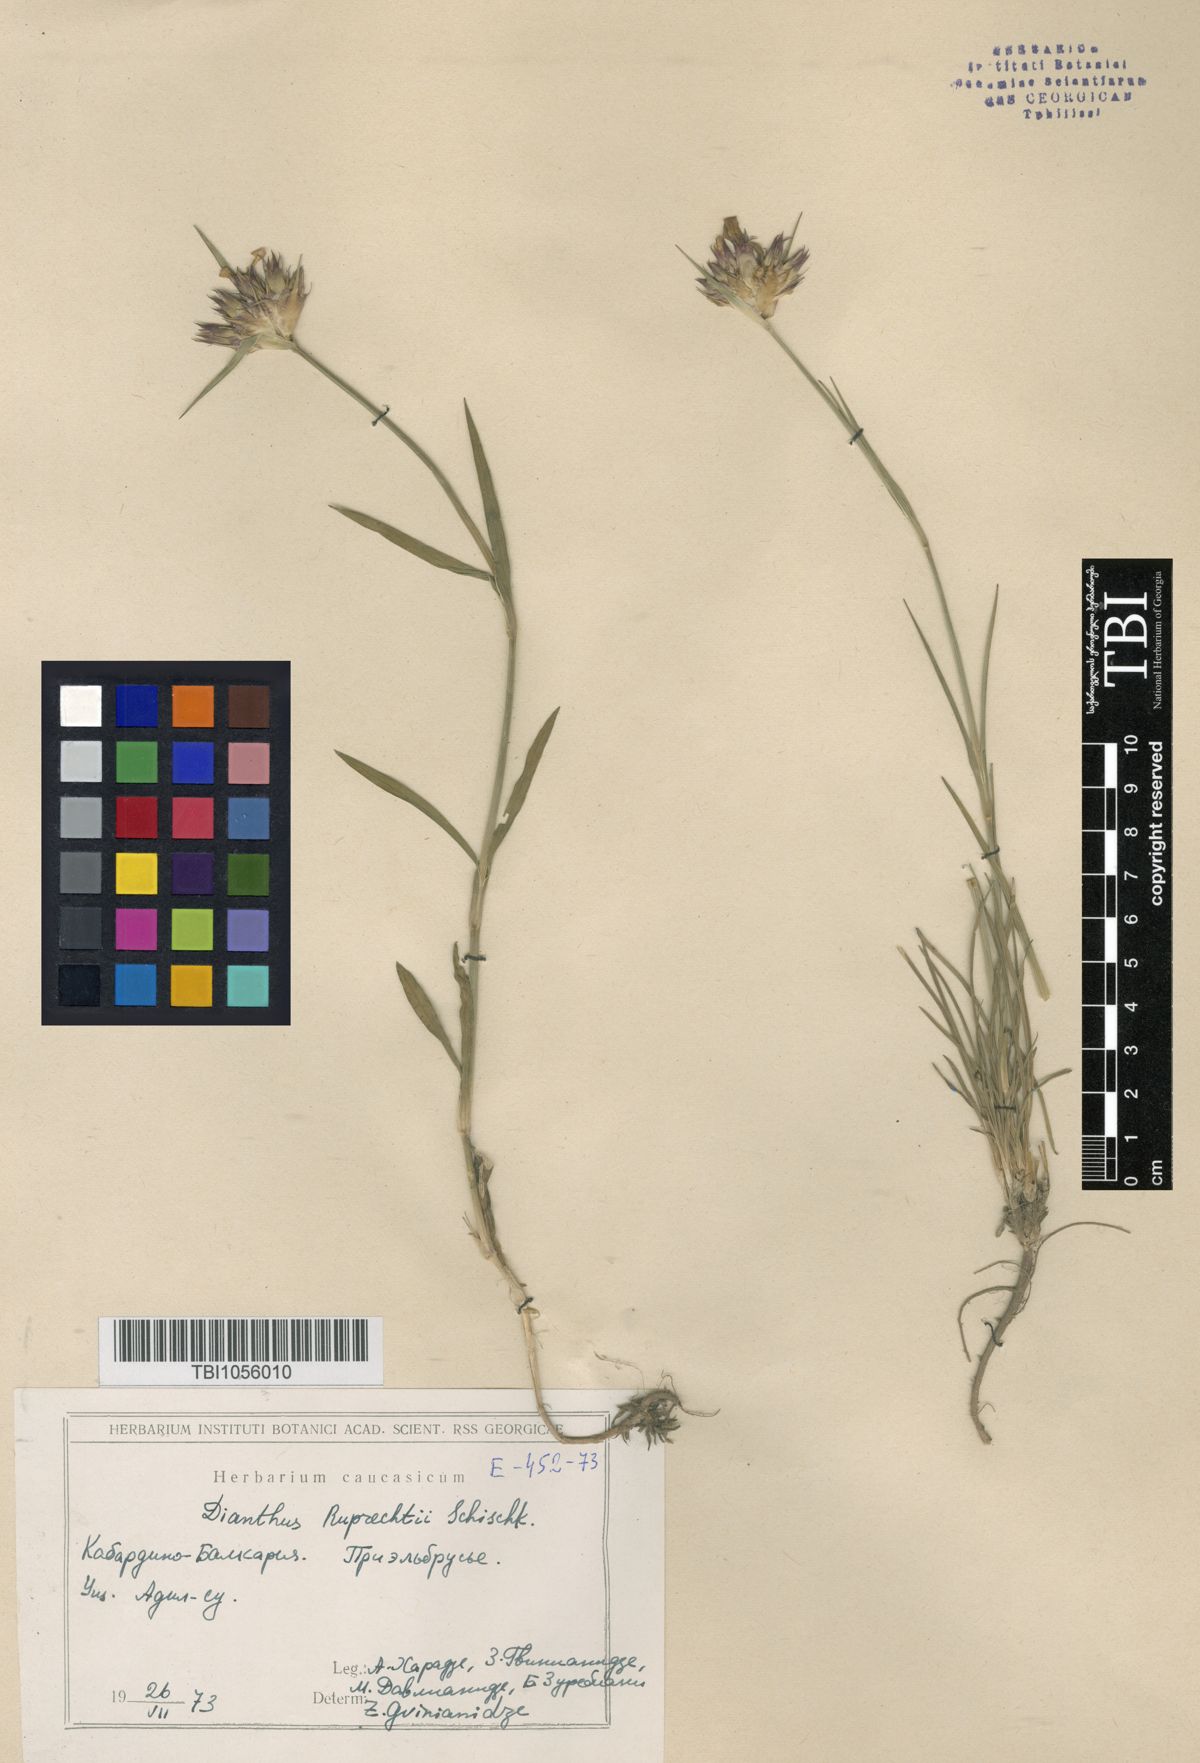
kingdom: Plantae
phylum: Tracheophyta
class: Magnoliopsida
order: Caryophyllales
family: Caryophyllaceae
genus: Dianthus
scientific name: Dianthus ruprechtii
